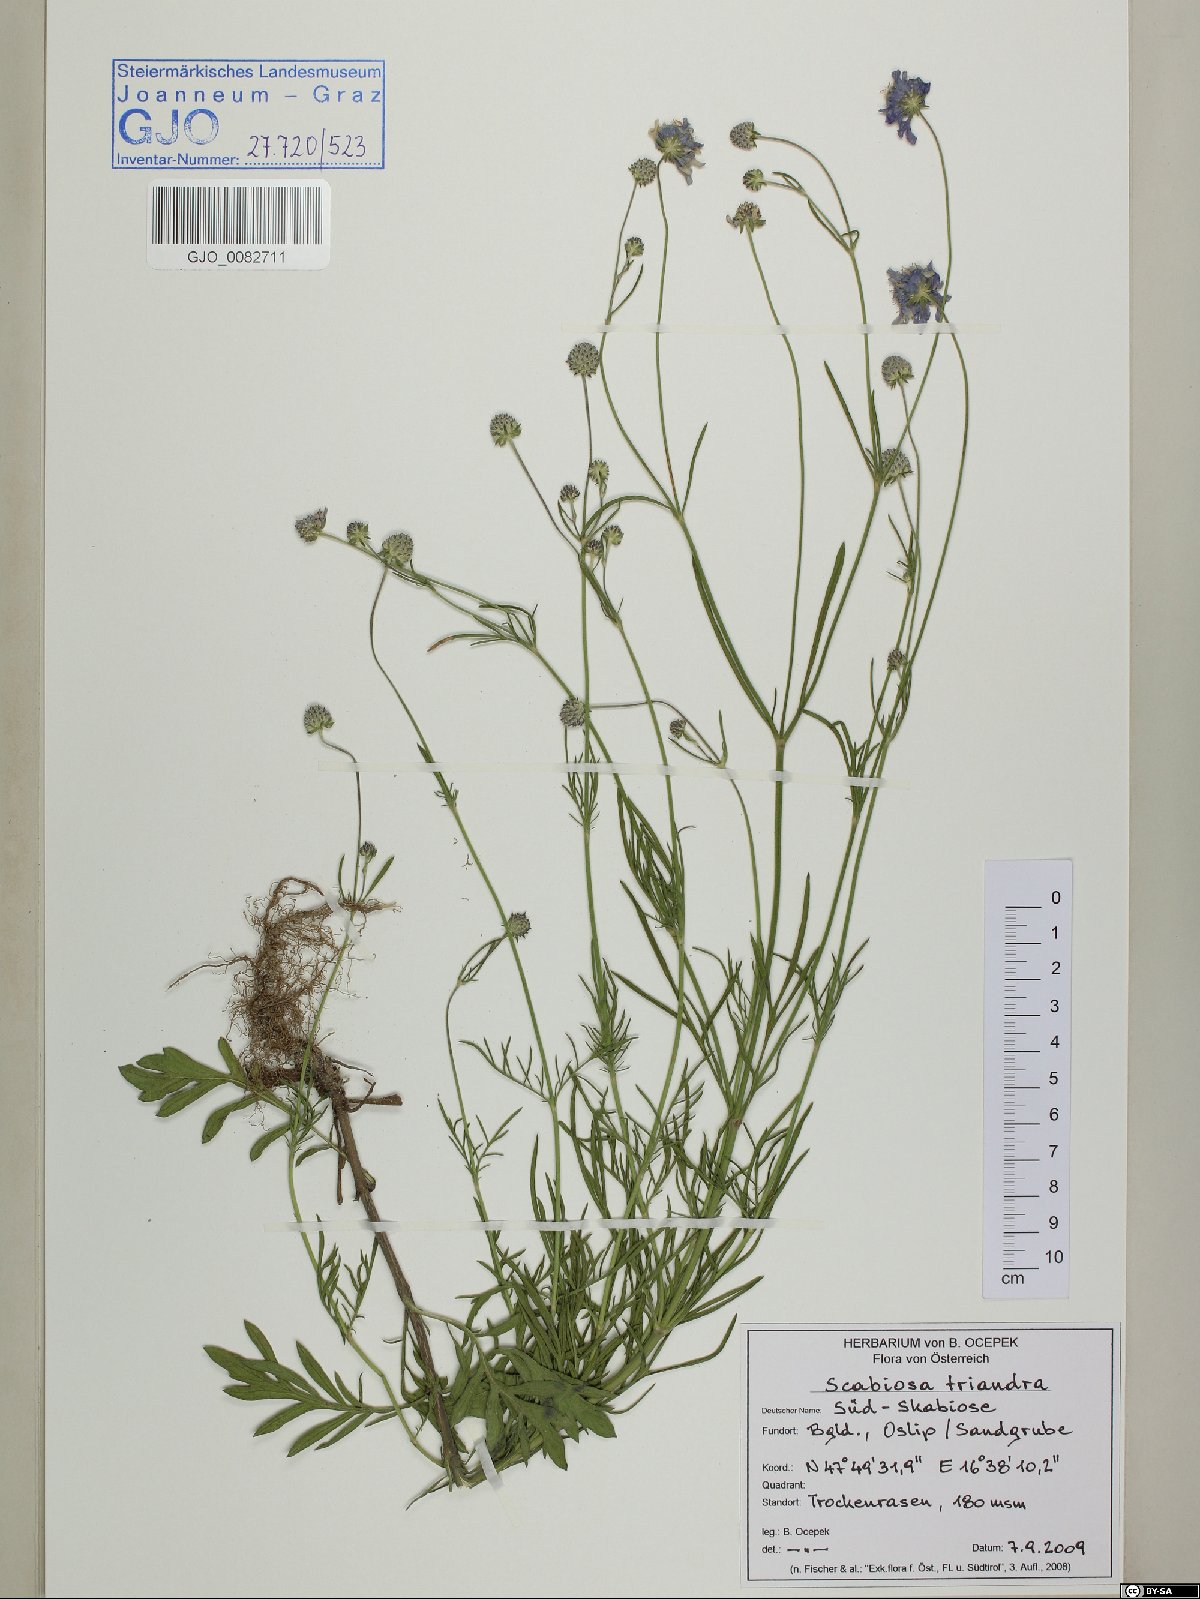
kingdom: Plantae
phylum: Tracheophyta
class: Magnoliopsida
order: Dipsacales
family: Caprifoliaceae
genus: Scabiosa
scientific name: Scabiosa triandra
